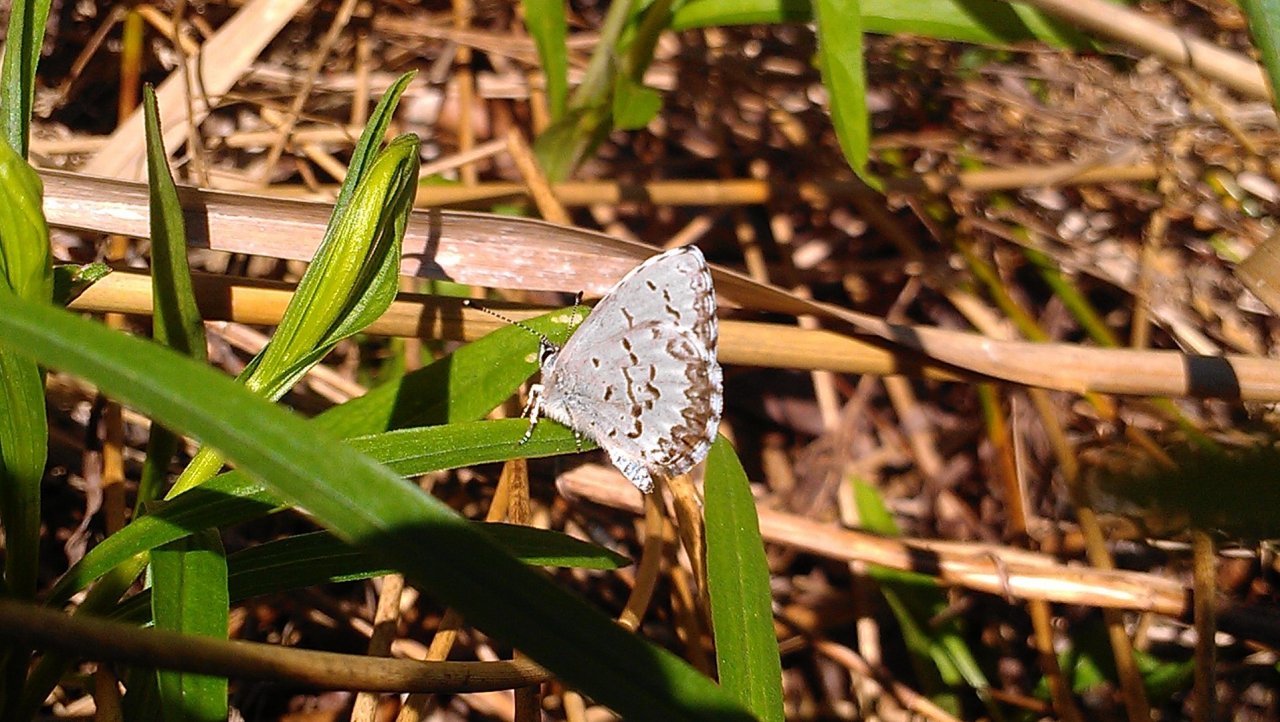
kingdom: Animalia
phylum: Arthropoda
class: Insecta
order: Lepidoptera
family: Lycaenidae
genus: Celastrina
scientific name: Celastrina lucia
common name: Northern Spring Azure
